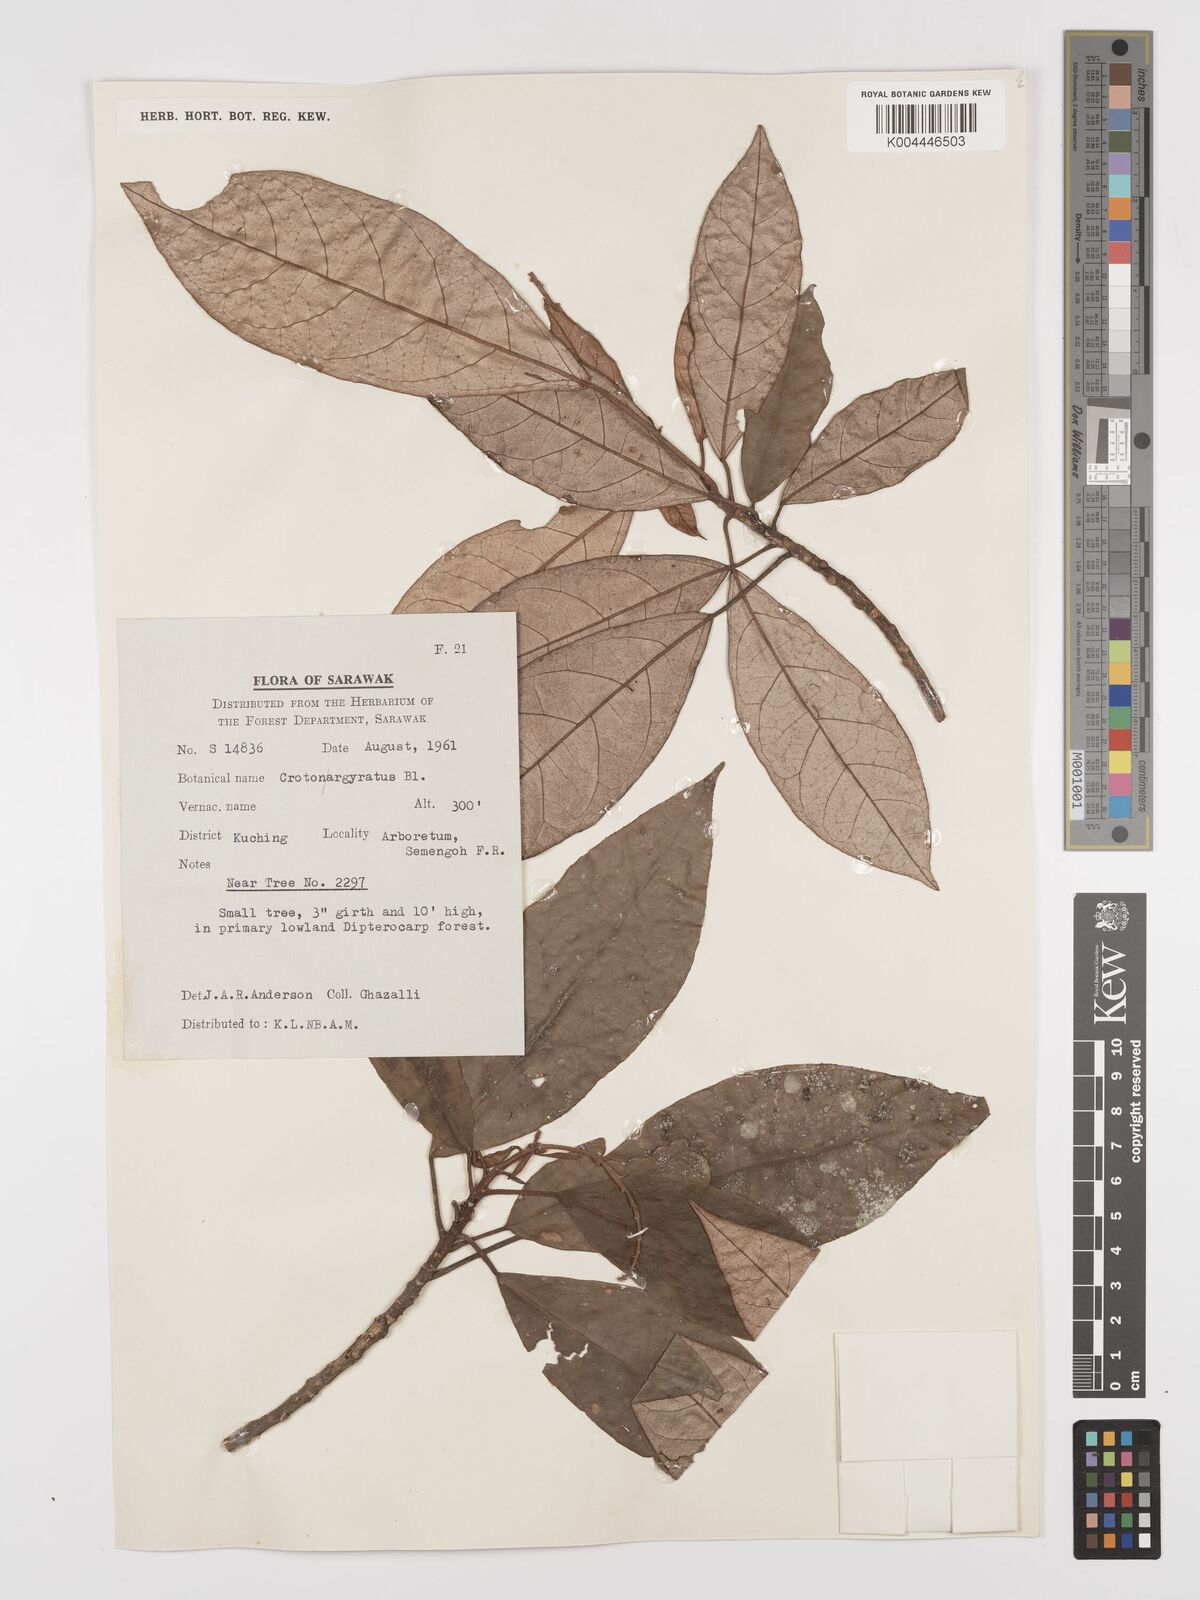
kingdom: Plantae
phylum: Tracheophyta
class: Magnoliopsida
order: Malpighiales
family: Euphorbiaceae
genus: Croton
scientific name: Croton argyratus
